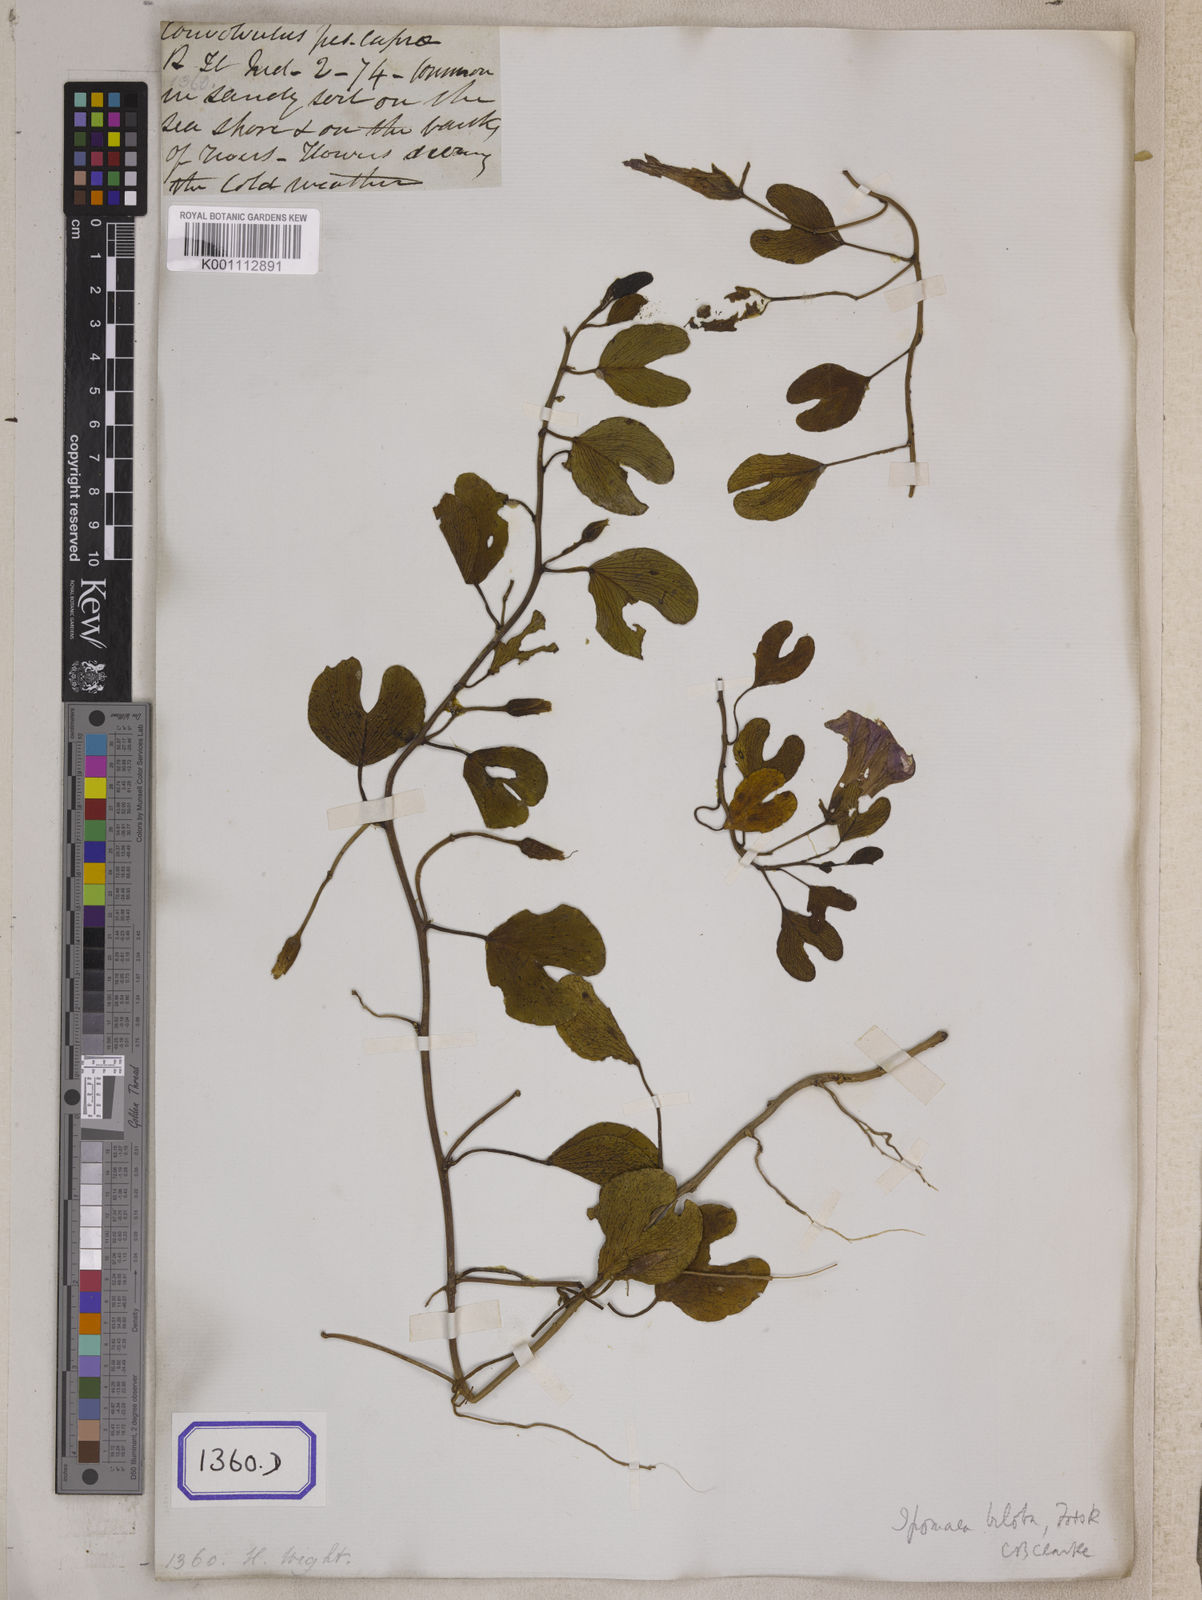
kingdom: Plantae
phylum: Tracheophyta
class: Magnoliopsida
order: Solanales
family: Convolvulaceae
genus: Ipomoea
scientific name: Ipomoea pes-caprae
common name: Beach morning glory
